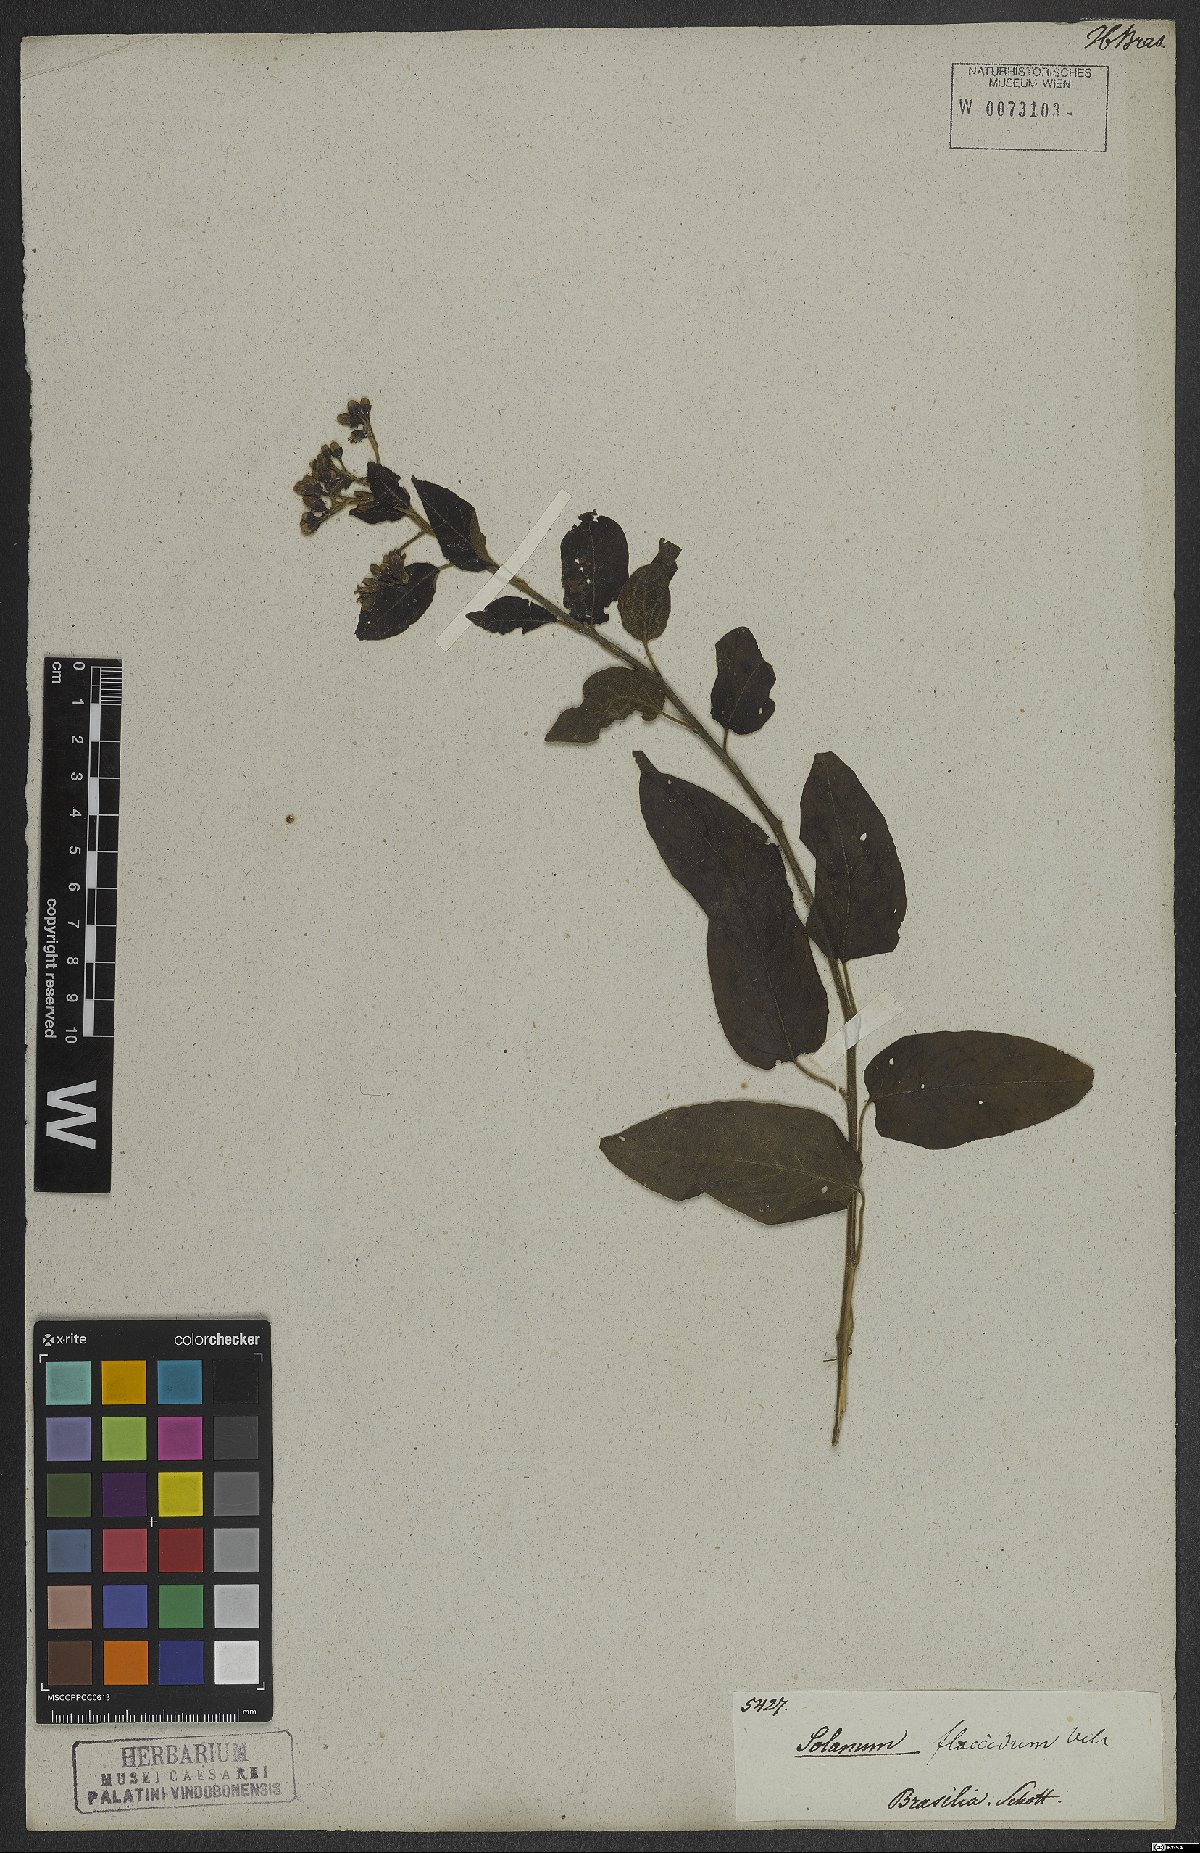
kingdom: Plantae
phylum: Tracheophyta
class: Magnoliopsida
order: Solanales
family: Solanaceae
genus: Solanum
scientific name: Solanum flaccidum
